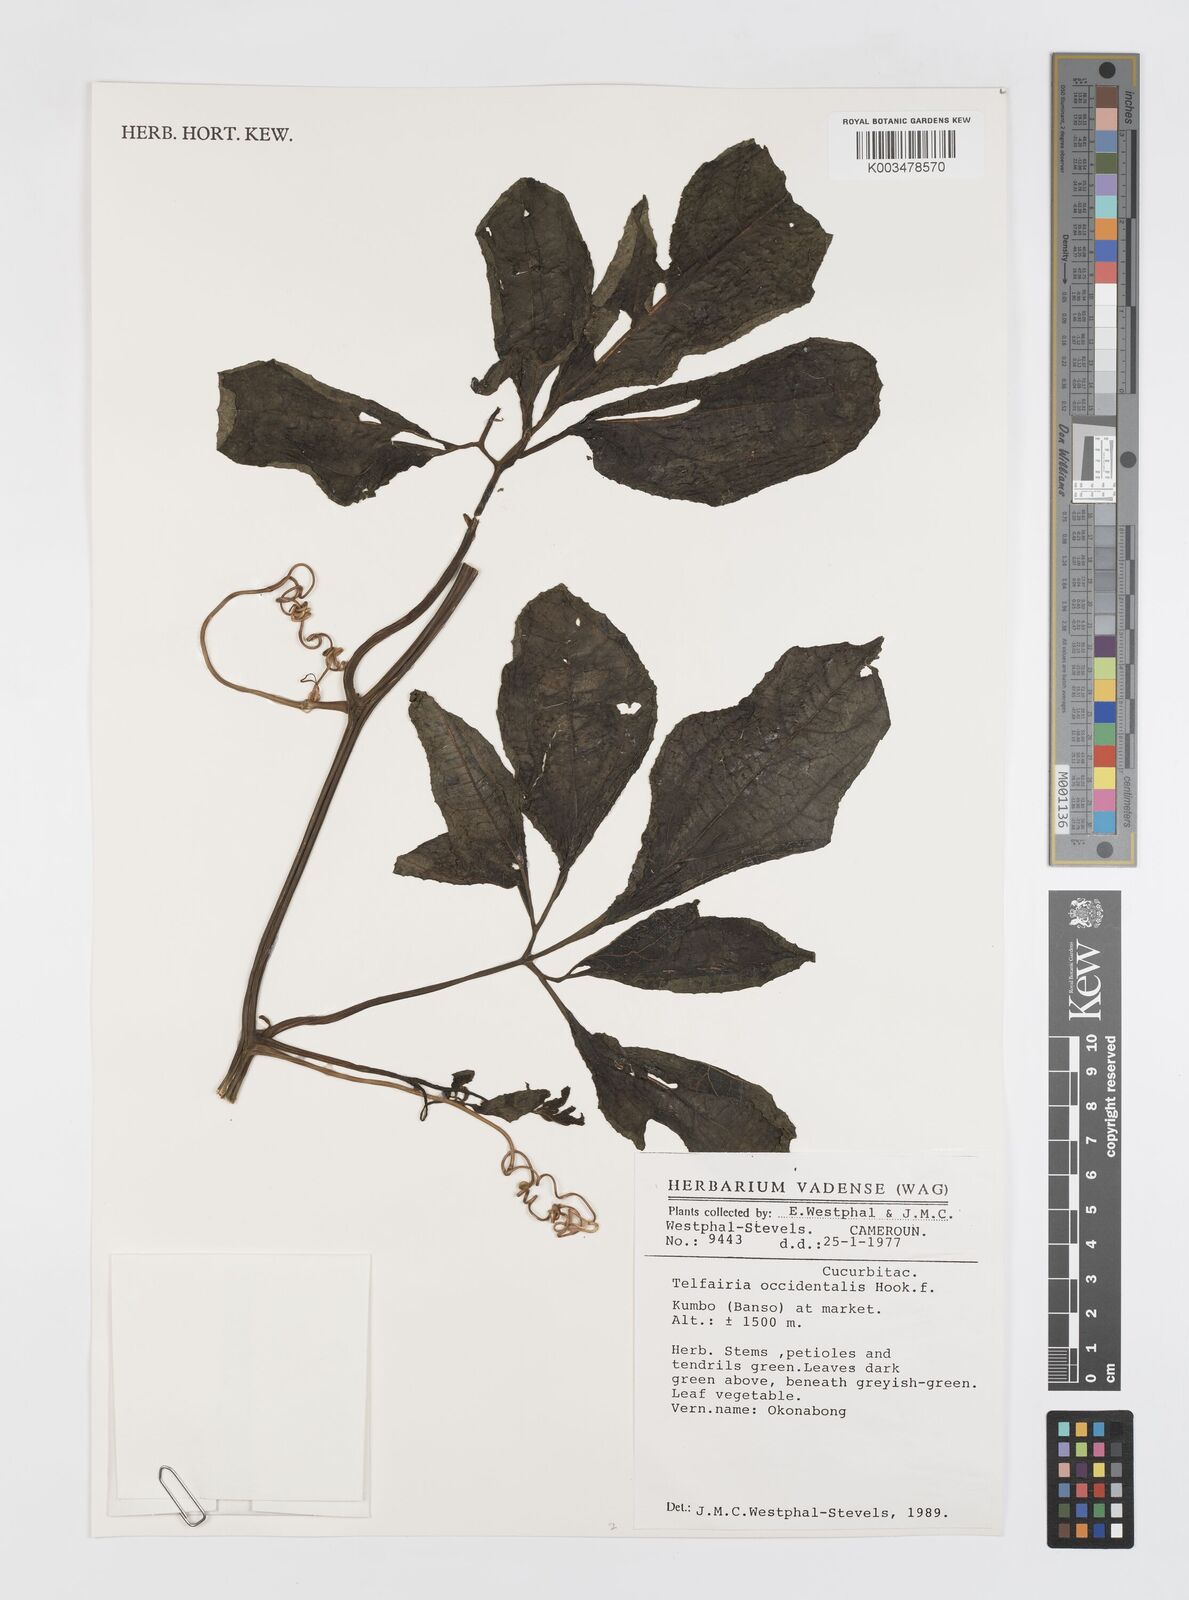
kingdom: Plantae
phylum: Tracheophyta
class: Magnoliopsida
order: Cucurbitales
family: Cucurbitaceae
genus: Telfairia
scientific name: Telfairia occidentalis
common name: Oysternut
